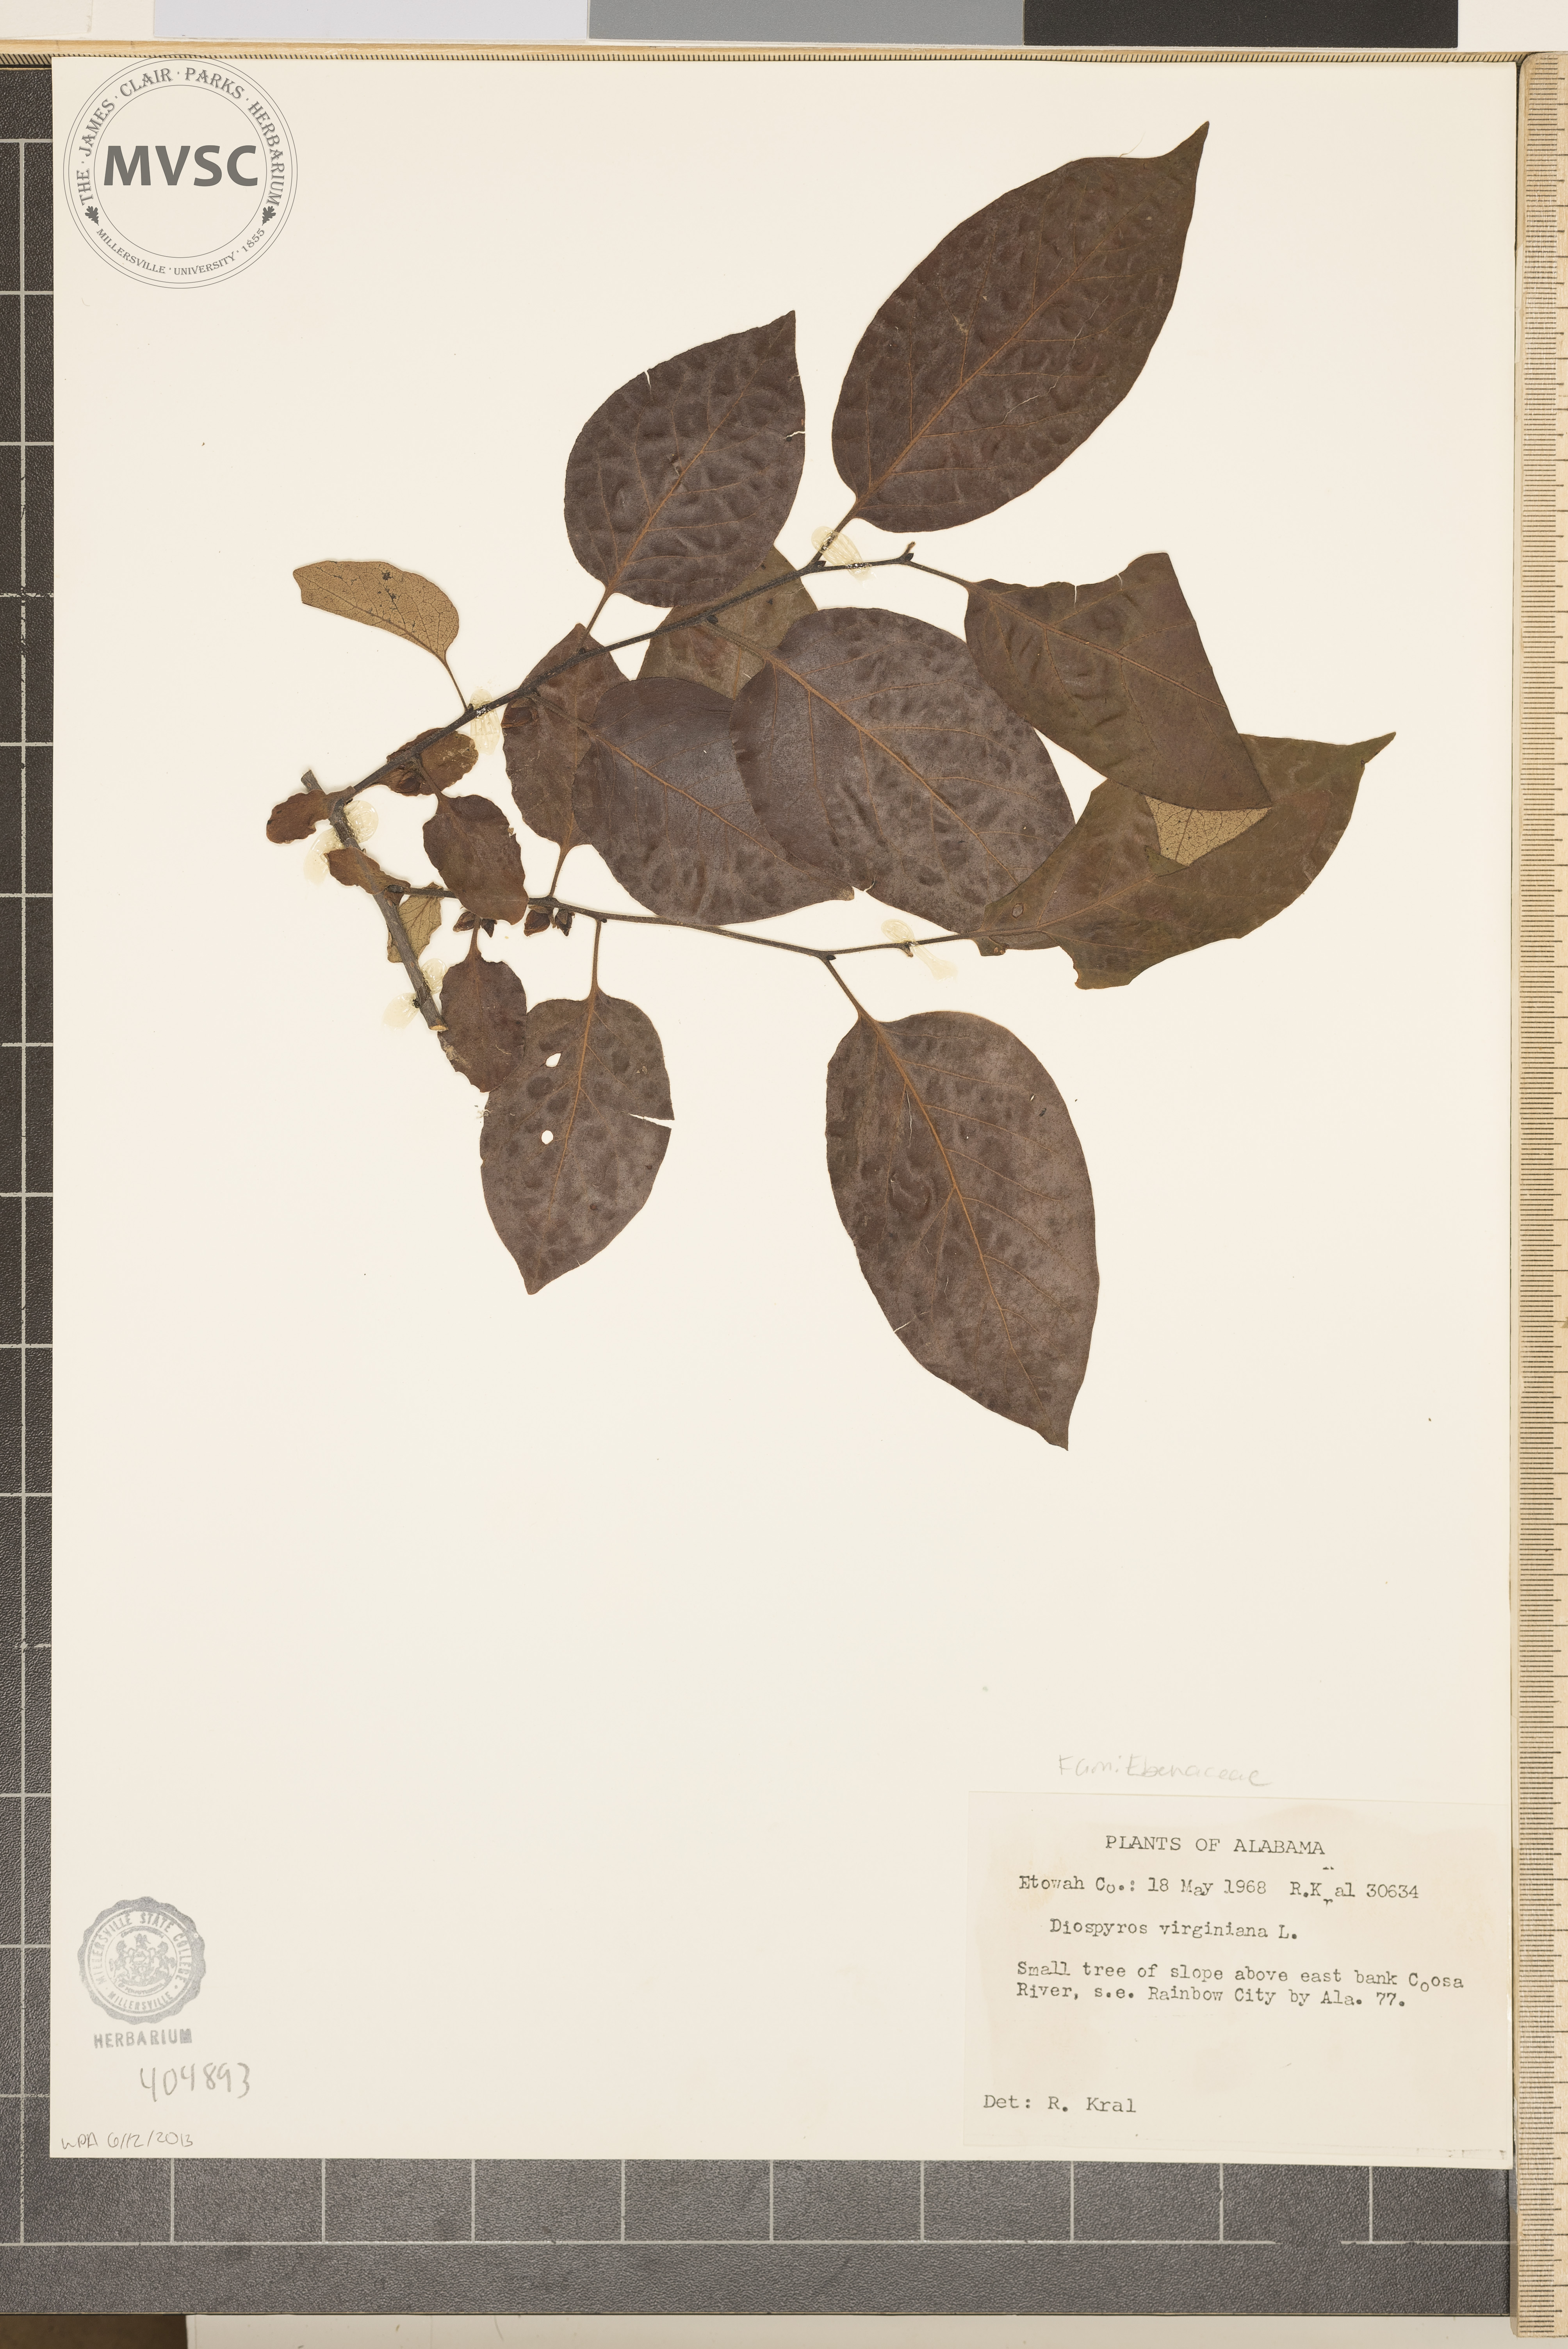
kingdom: Plantae
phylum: Tracheophyta
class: Magnoliopsida
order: Ericales
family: Ebenaceae
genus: Diospyros
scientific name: Diospyros virginiana
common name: Persimmon
